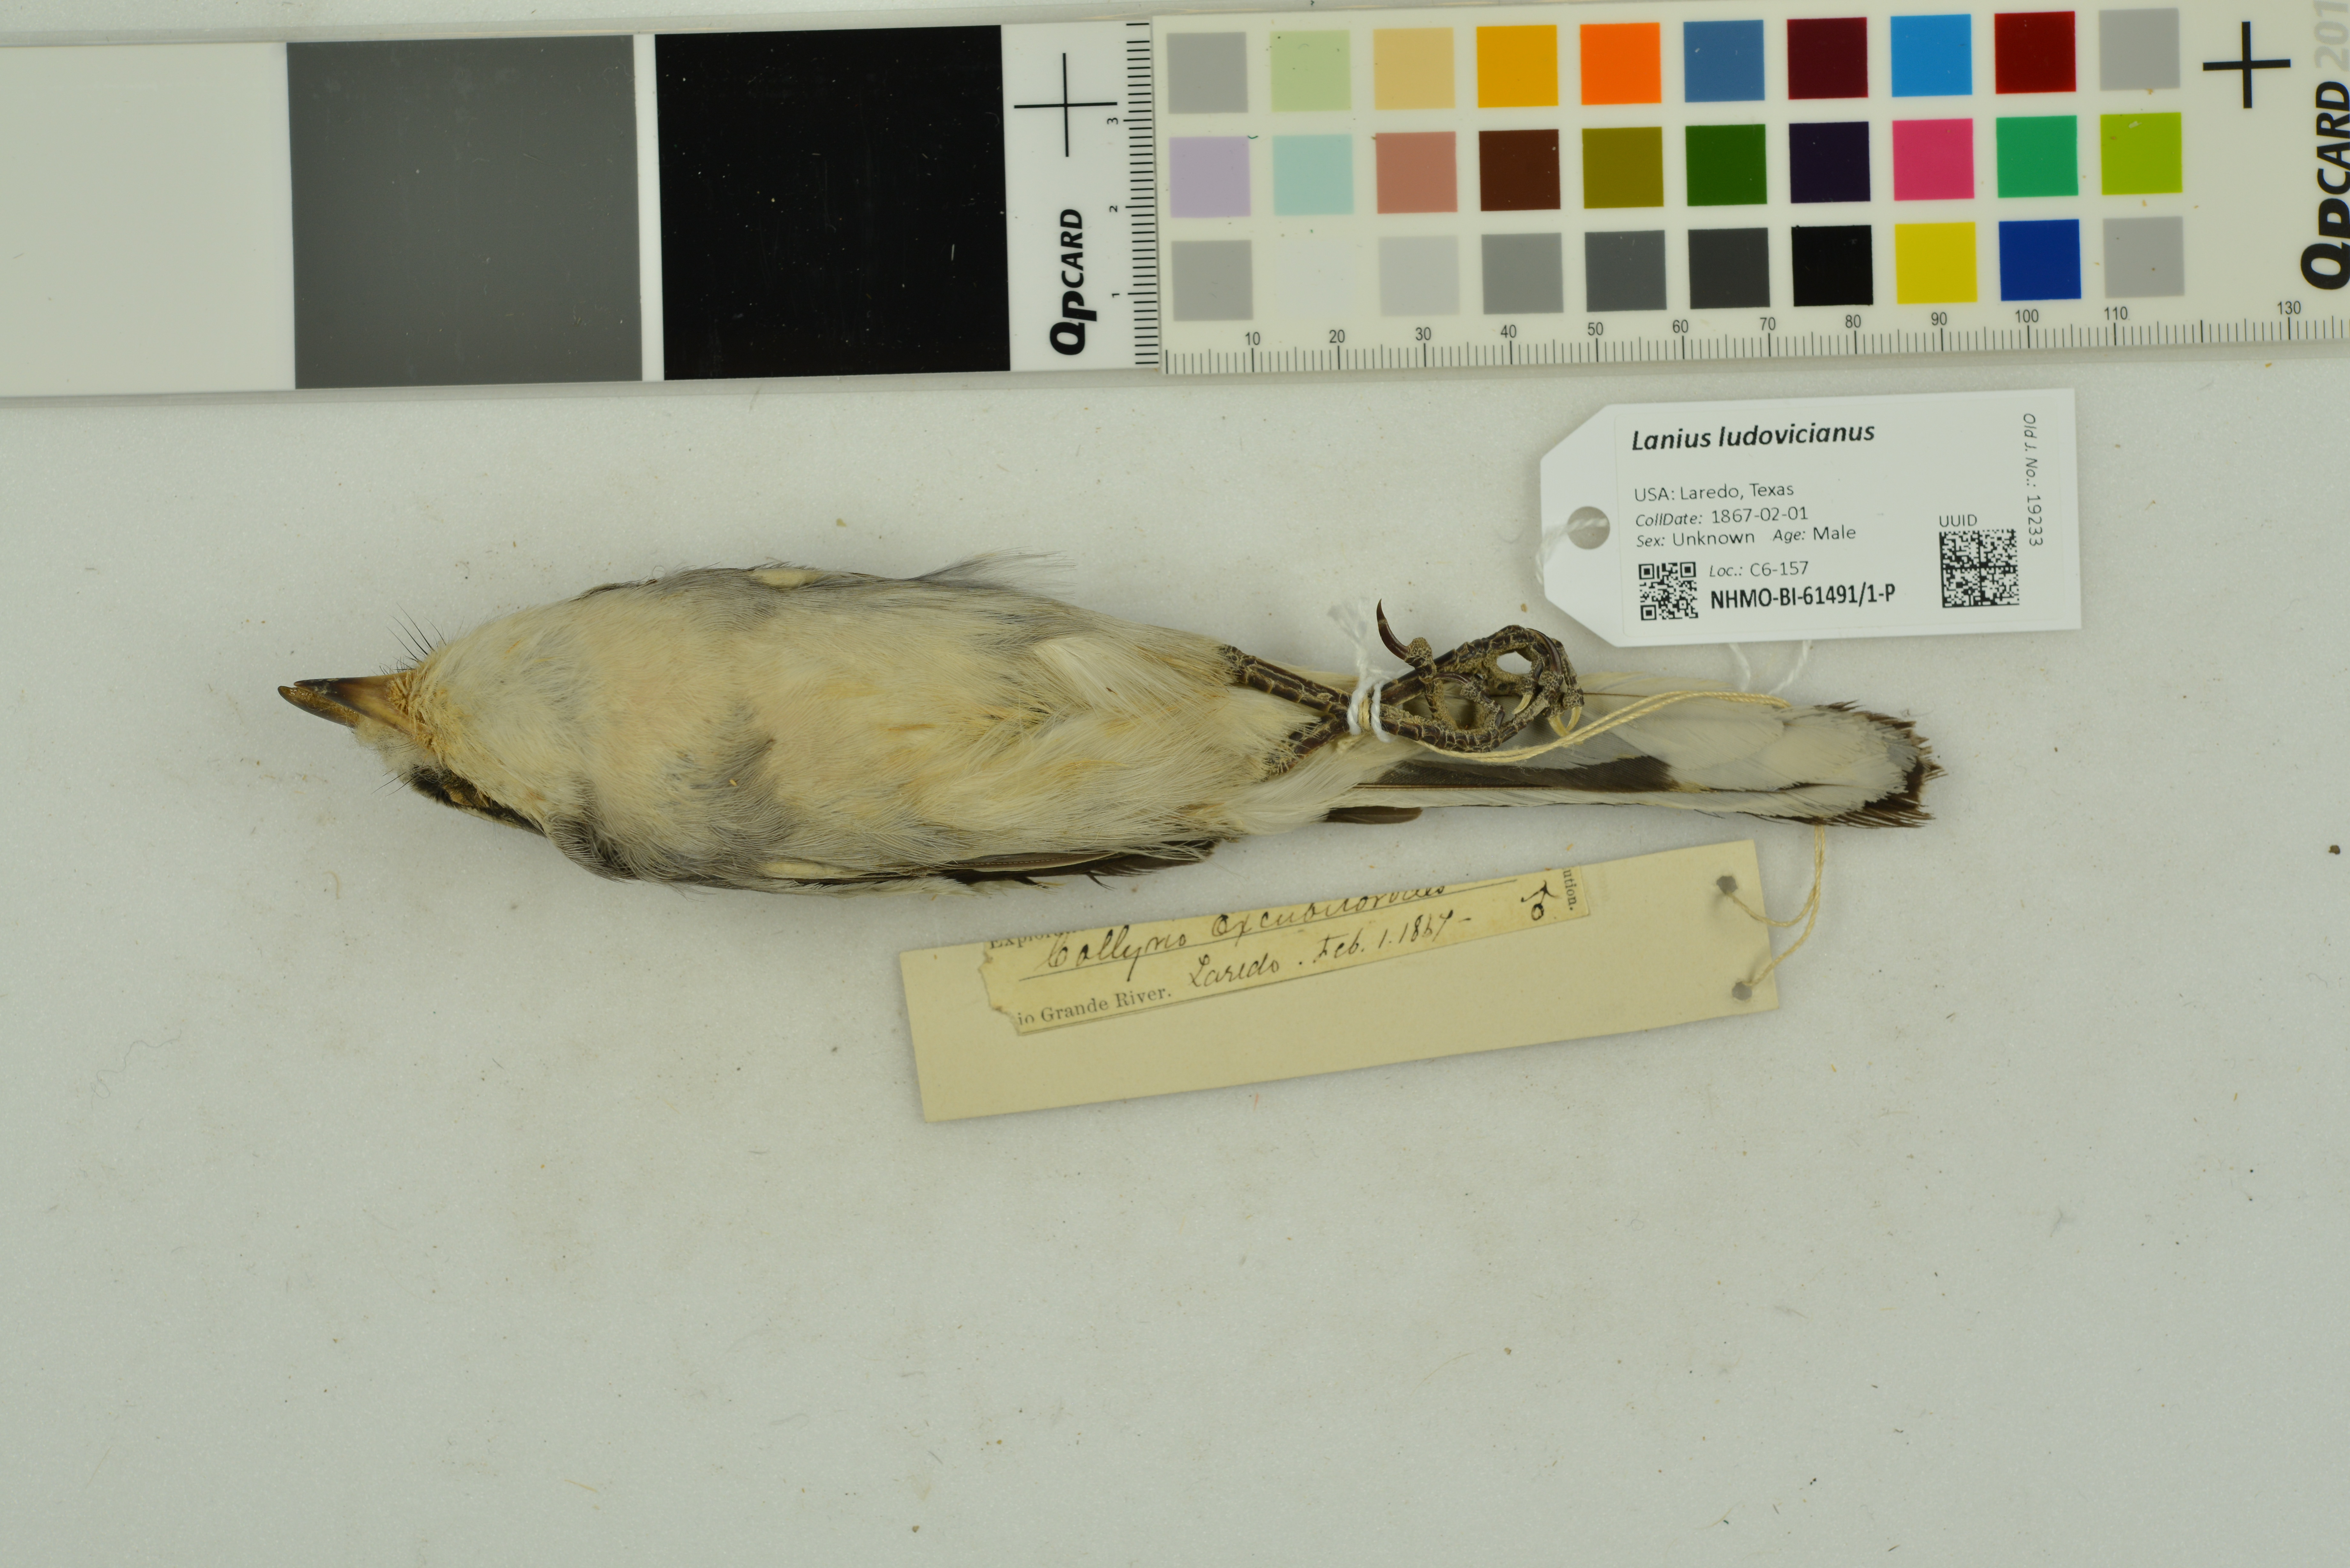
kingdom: Animalia
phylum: Chordata
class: Aves
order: Passeriformes
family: Laniidae
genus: Lanius
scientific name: Lanius ludovicianus
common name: Loggerhead shrike
